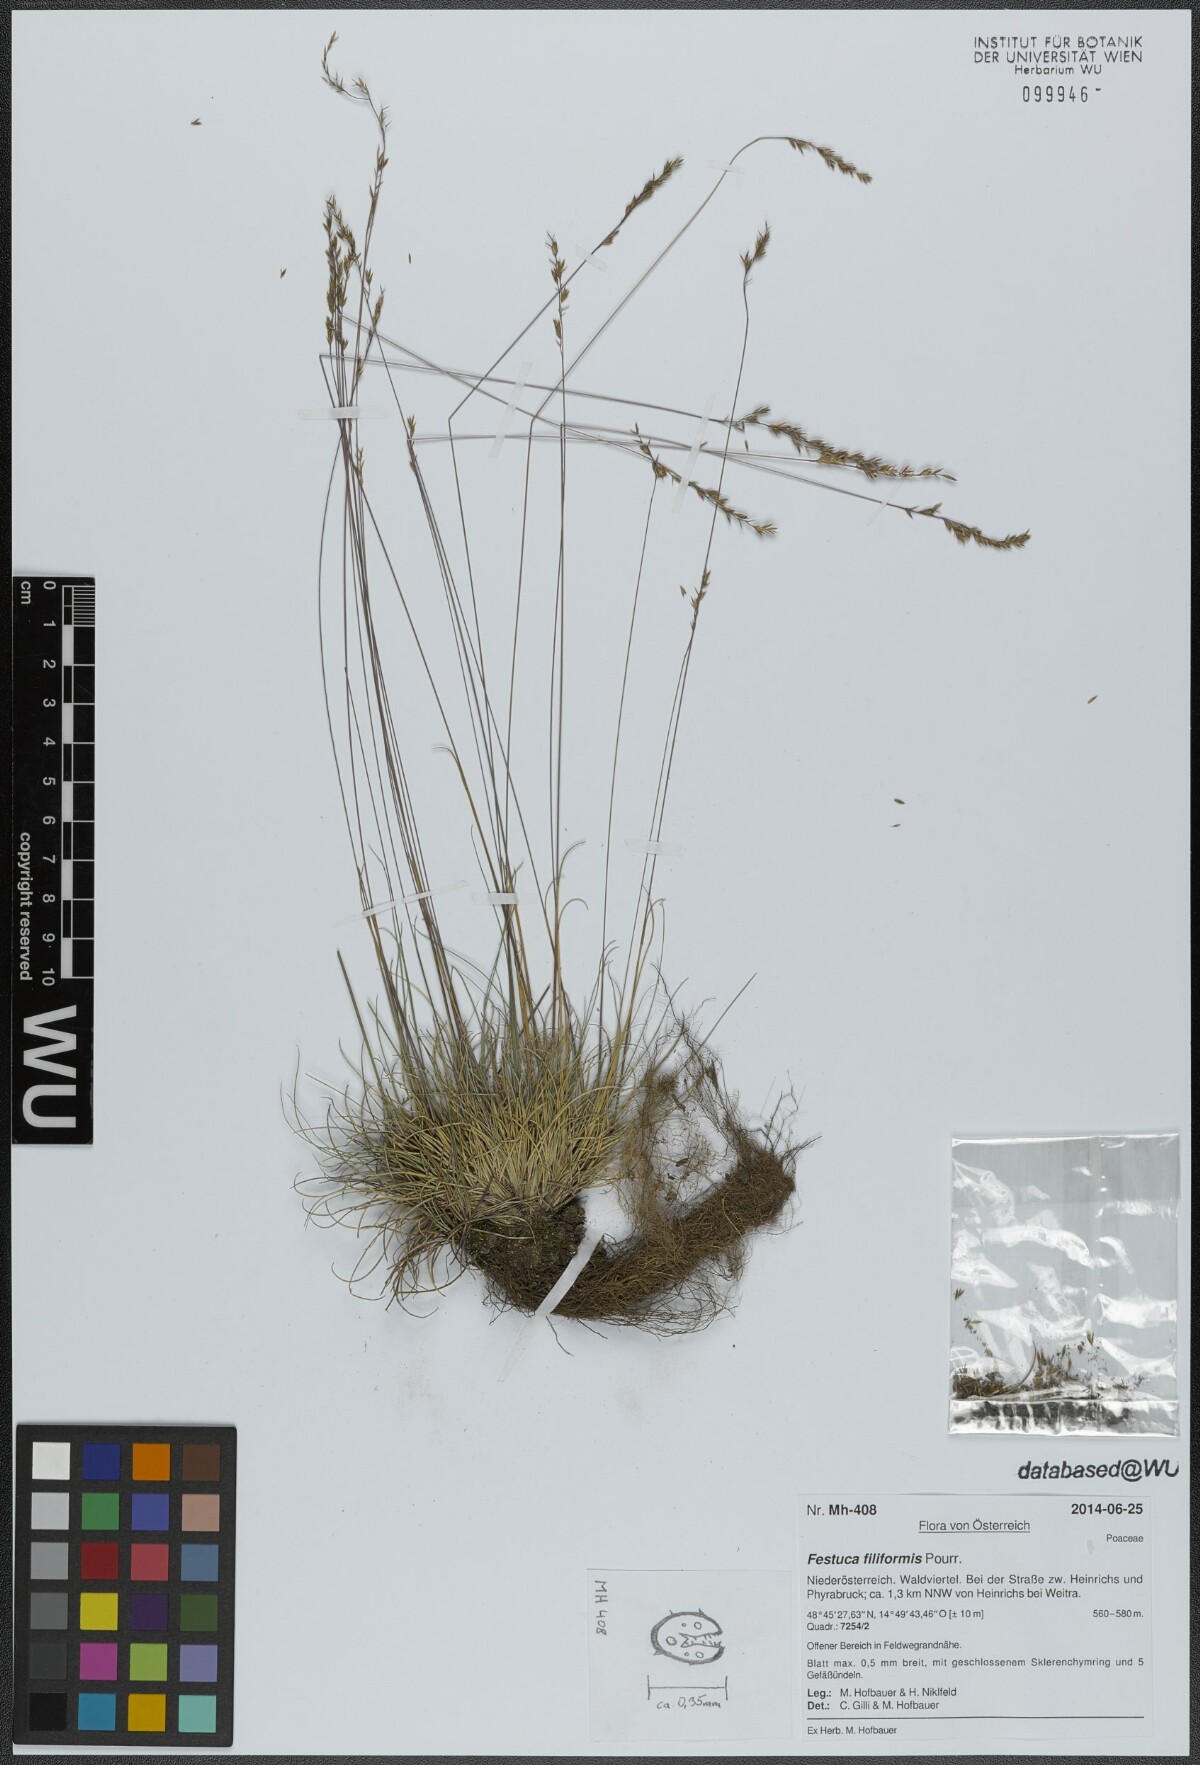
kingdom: Plantae
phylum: Tracheophyta
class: Liliopsida
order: Poales
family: Poaceae
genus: Festuca
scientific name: Festuca filiformis
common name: Fine-leaved sheep's-fescue
